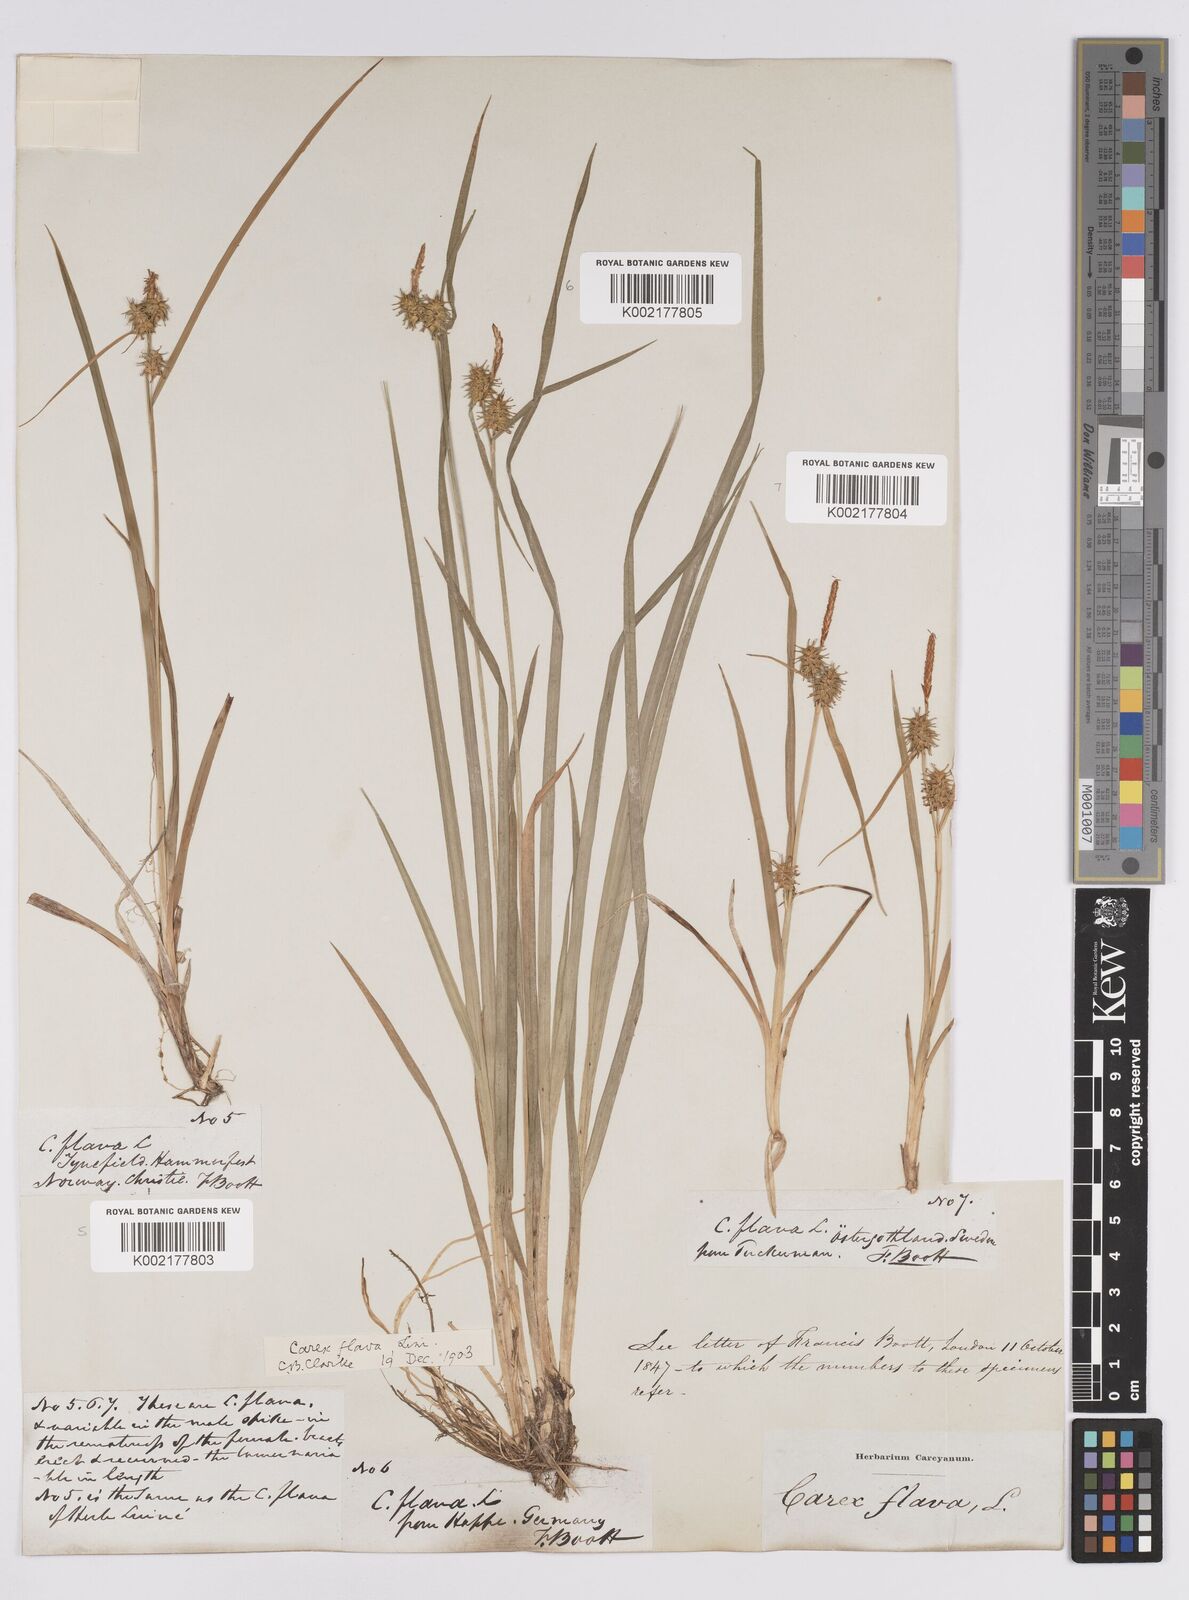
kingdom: Plantae
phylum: Tracheophyta
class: Liliopsida
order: Poales
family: Cyperaceae
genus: Carex
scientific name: Carex flava
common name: Large yellow-sedge
